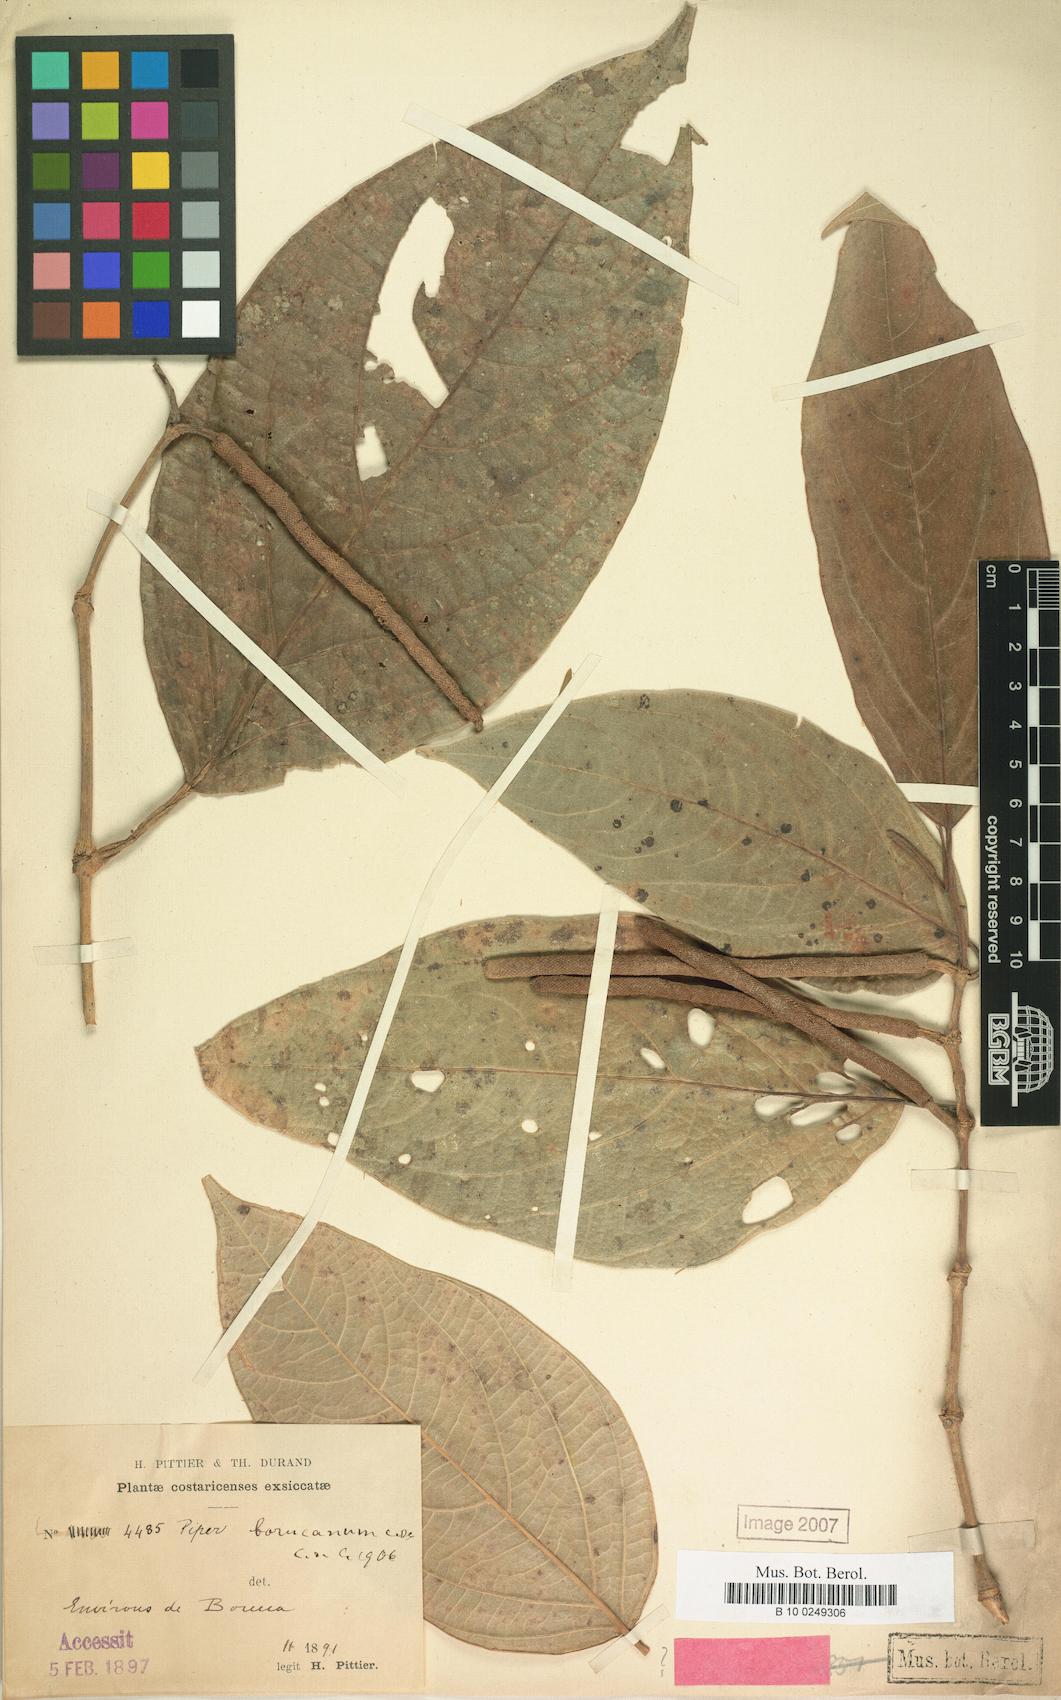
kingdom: Plantae
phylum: Tracheophyta
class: Magnoliopsida
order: Piperales
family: Piperaceae
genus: Piper
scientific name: Piper grande
